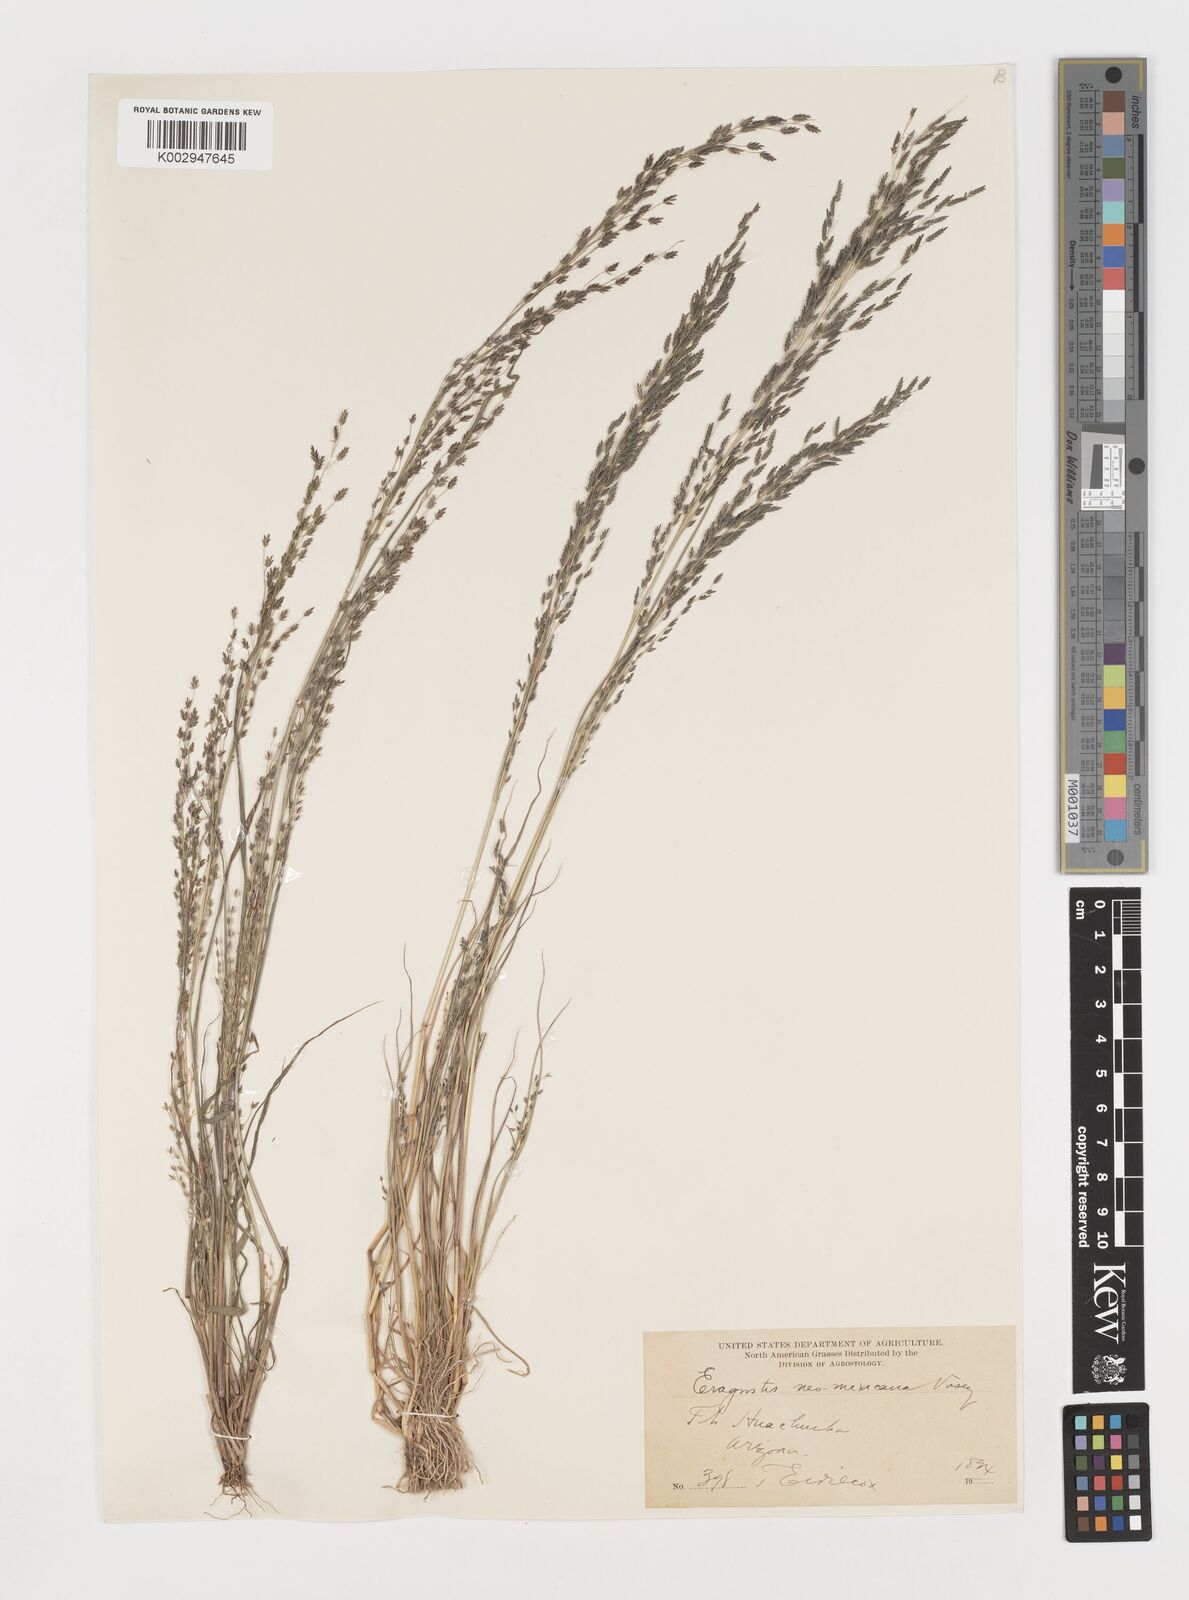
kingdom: Plantae
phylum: Tracheophyta
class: Liliopsida
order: Poales
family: Poaceae
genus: Eragrostis
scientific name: Eragrostis mexicana
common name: Mexican love grass
